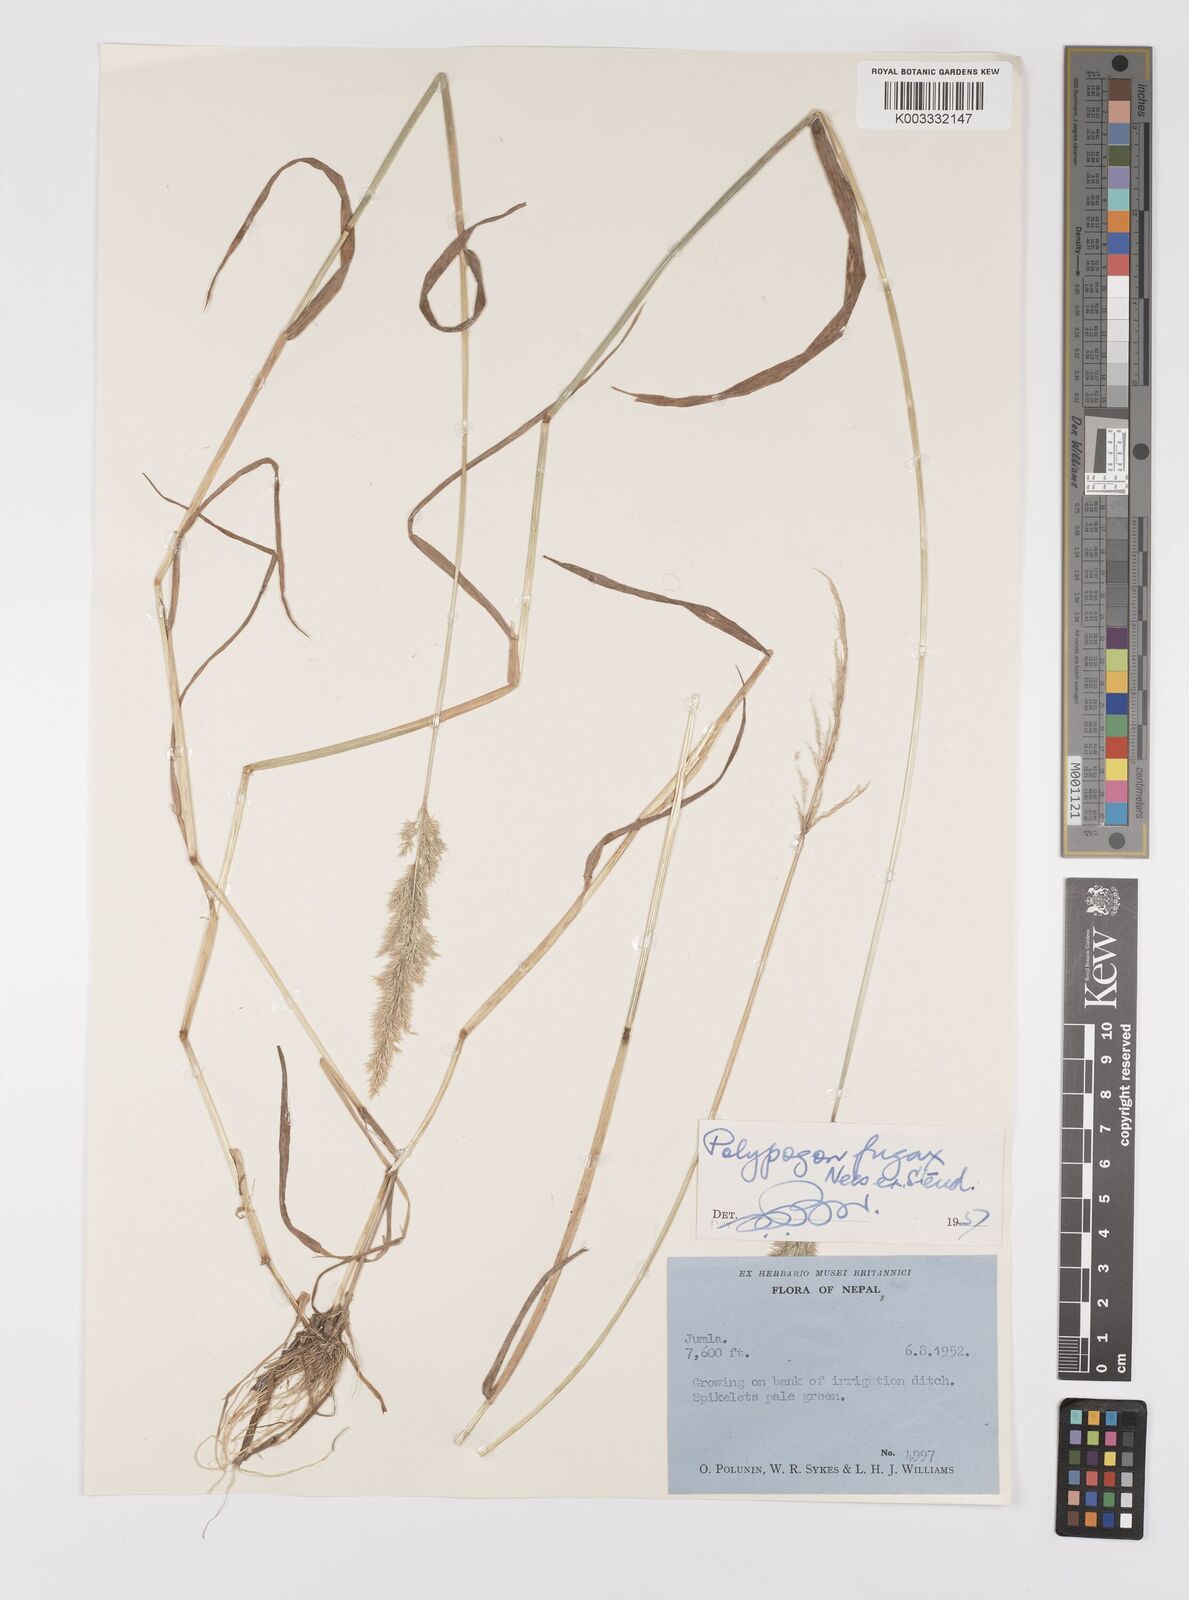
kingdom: Plantae
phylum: Tracheophyta
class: Liliopsida
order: Poales
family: Poaceae
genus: Polypogon
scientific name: Polypogon fugax
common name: Asia minor bluegrass
